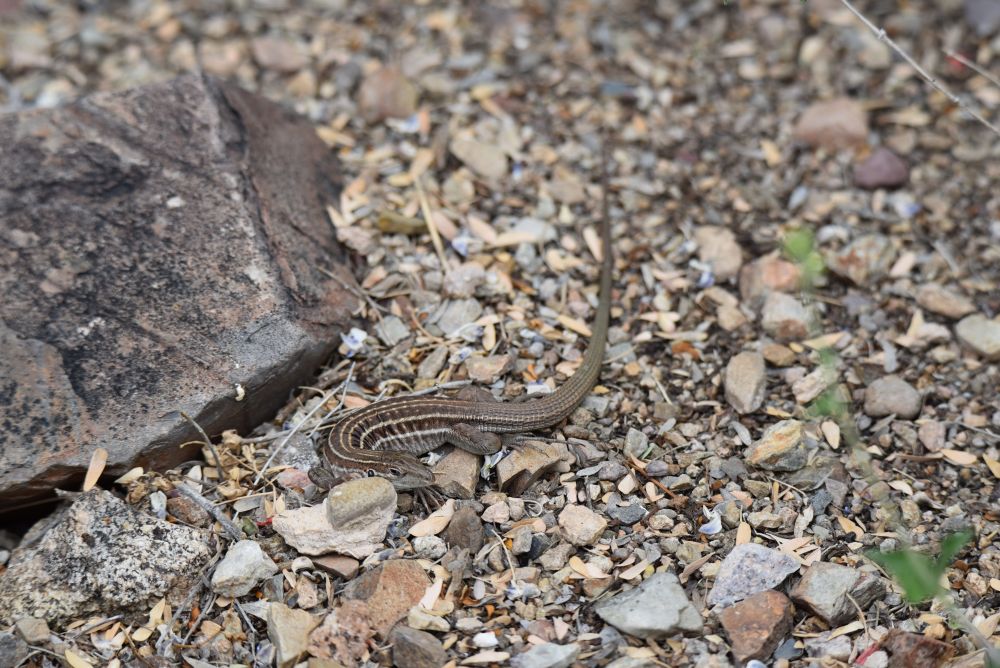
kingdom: Animalia
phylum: Chordata
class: Squamata
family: Teiidae
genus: Aspidoscelis
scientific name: Aspidoscelis sonorae
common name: Sonoran spotted whiptail
